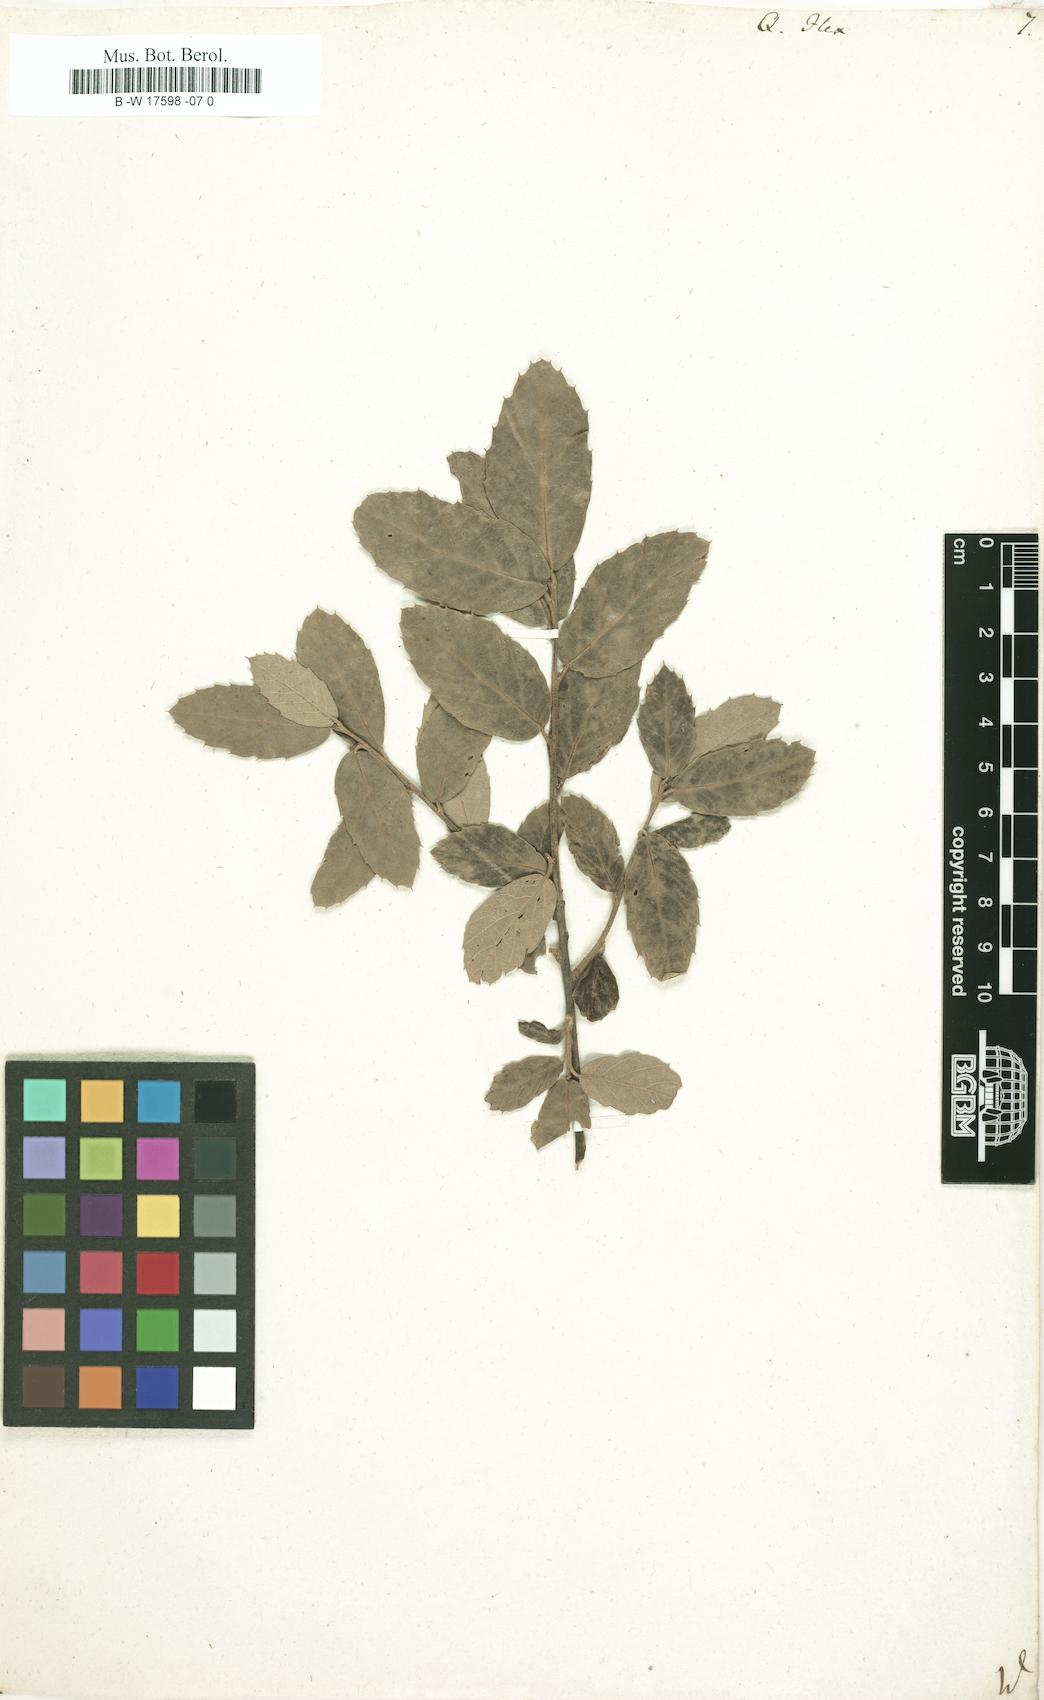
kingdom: Plantae
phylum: Tracheophyta
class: Magnoliopsida
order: Fagales
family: Fagaceae
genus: Quercus
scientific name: Quercus ilex
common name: Evergreen oak
